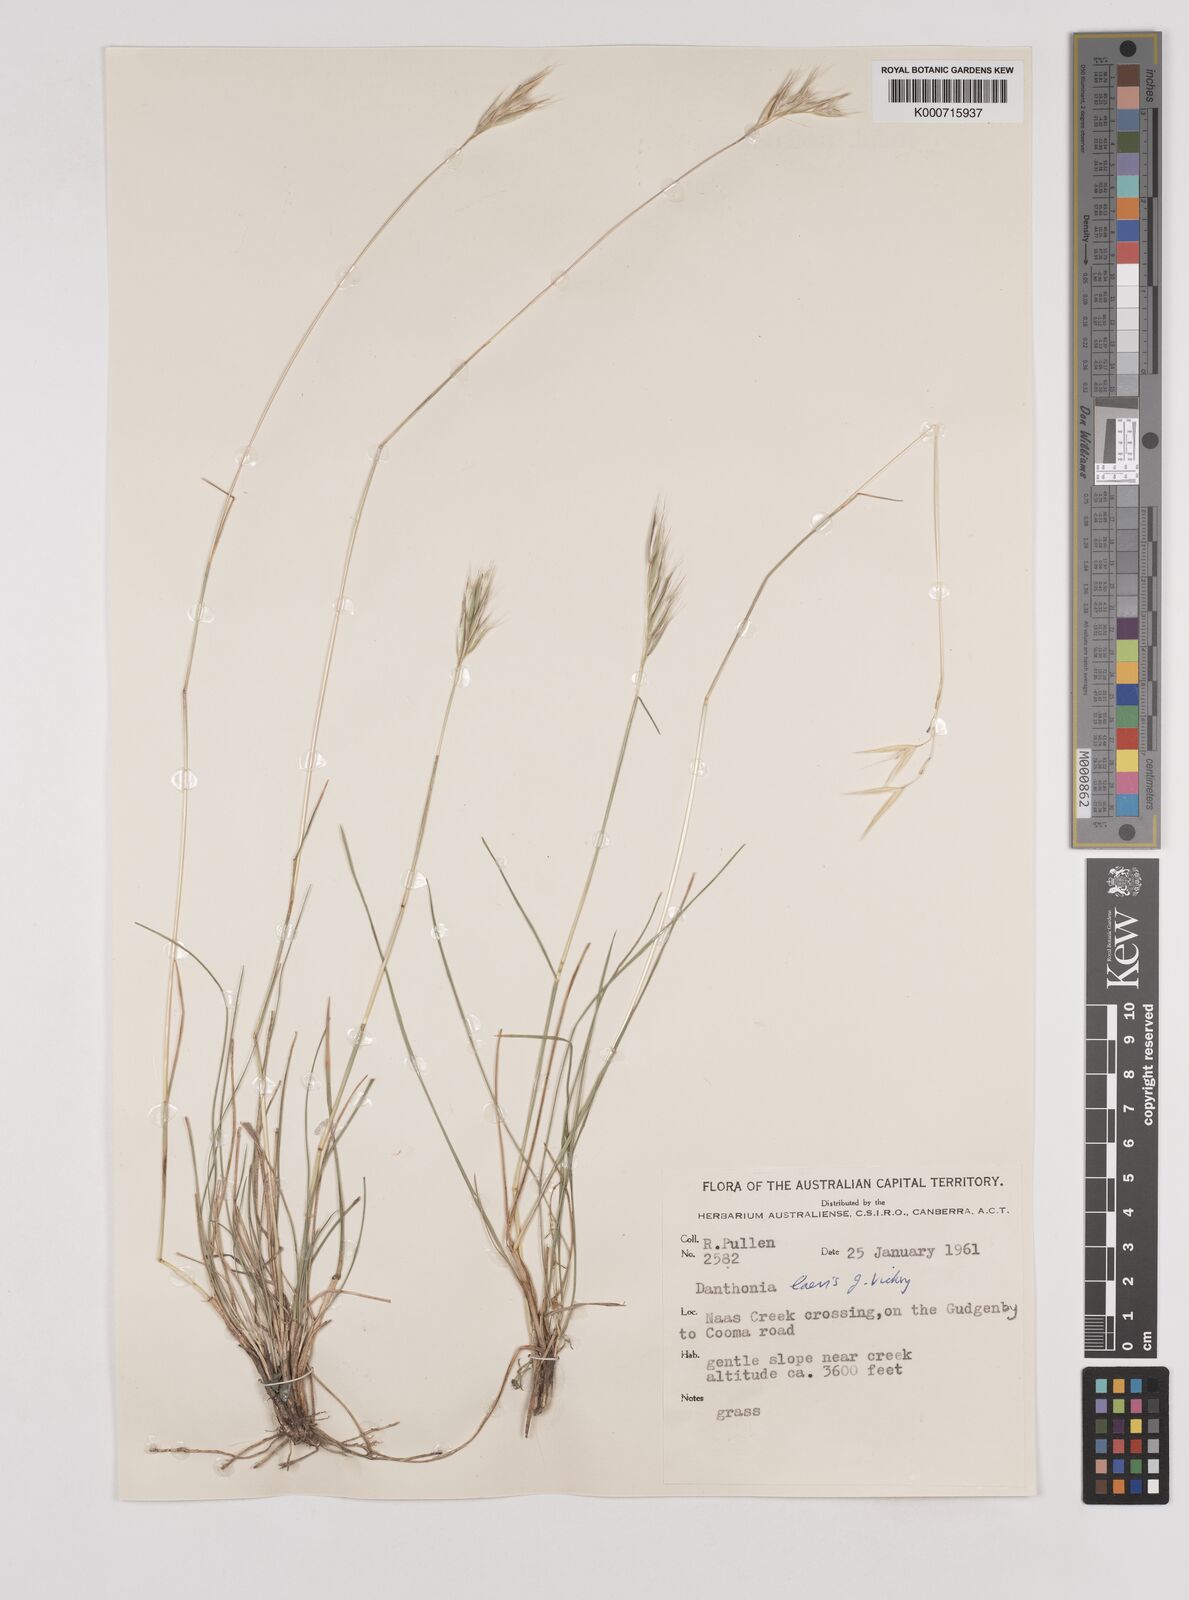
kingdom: Plantae
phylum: Tracheophyta
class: Liliopsida
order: Poales
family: Poaceae
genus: Rytidosperma
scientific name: Rytidosperma laeve
